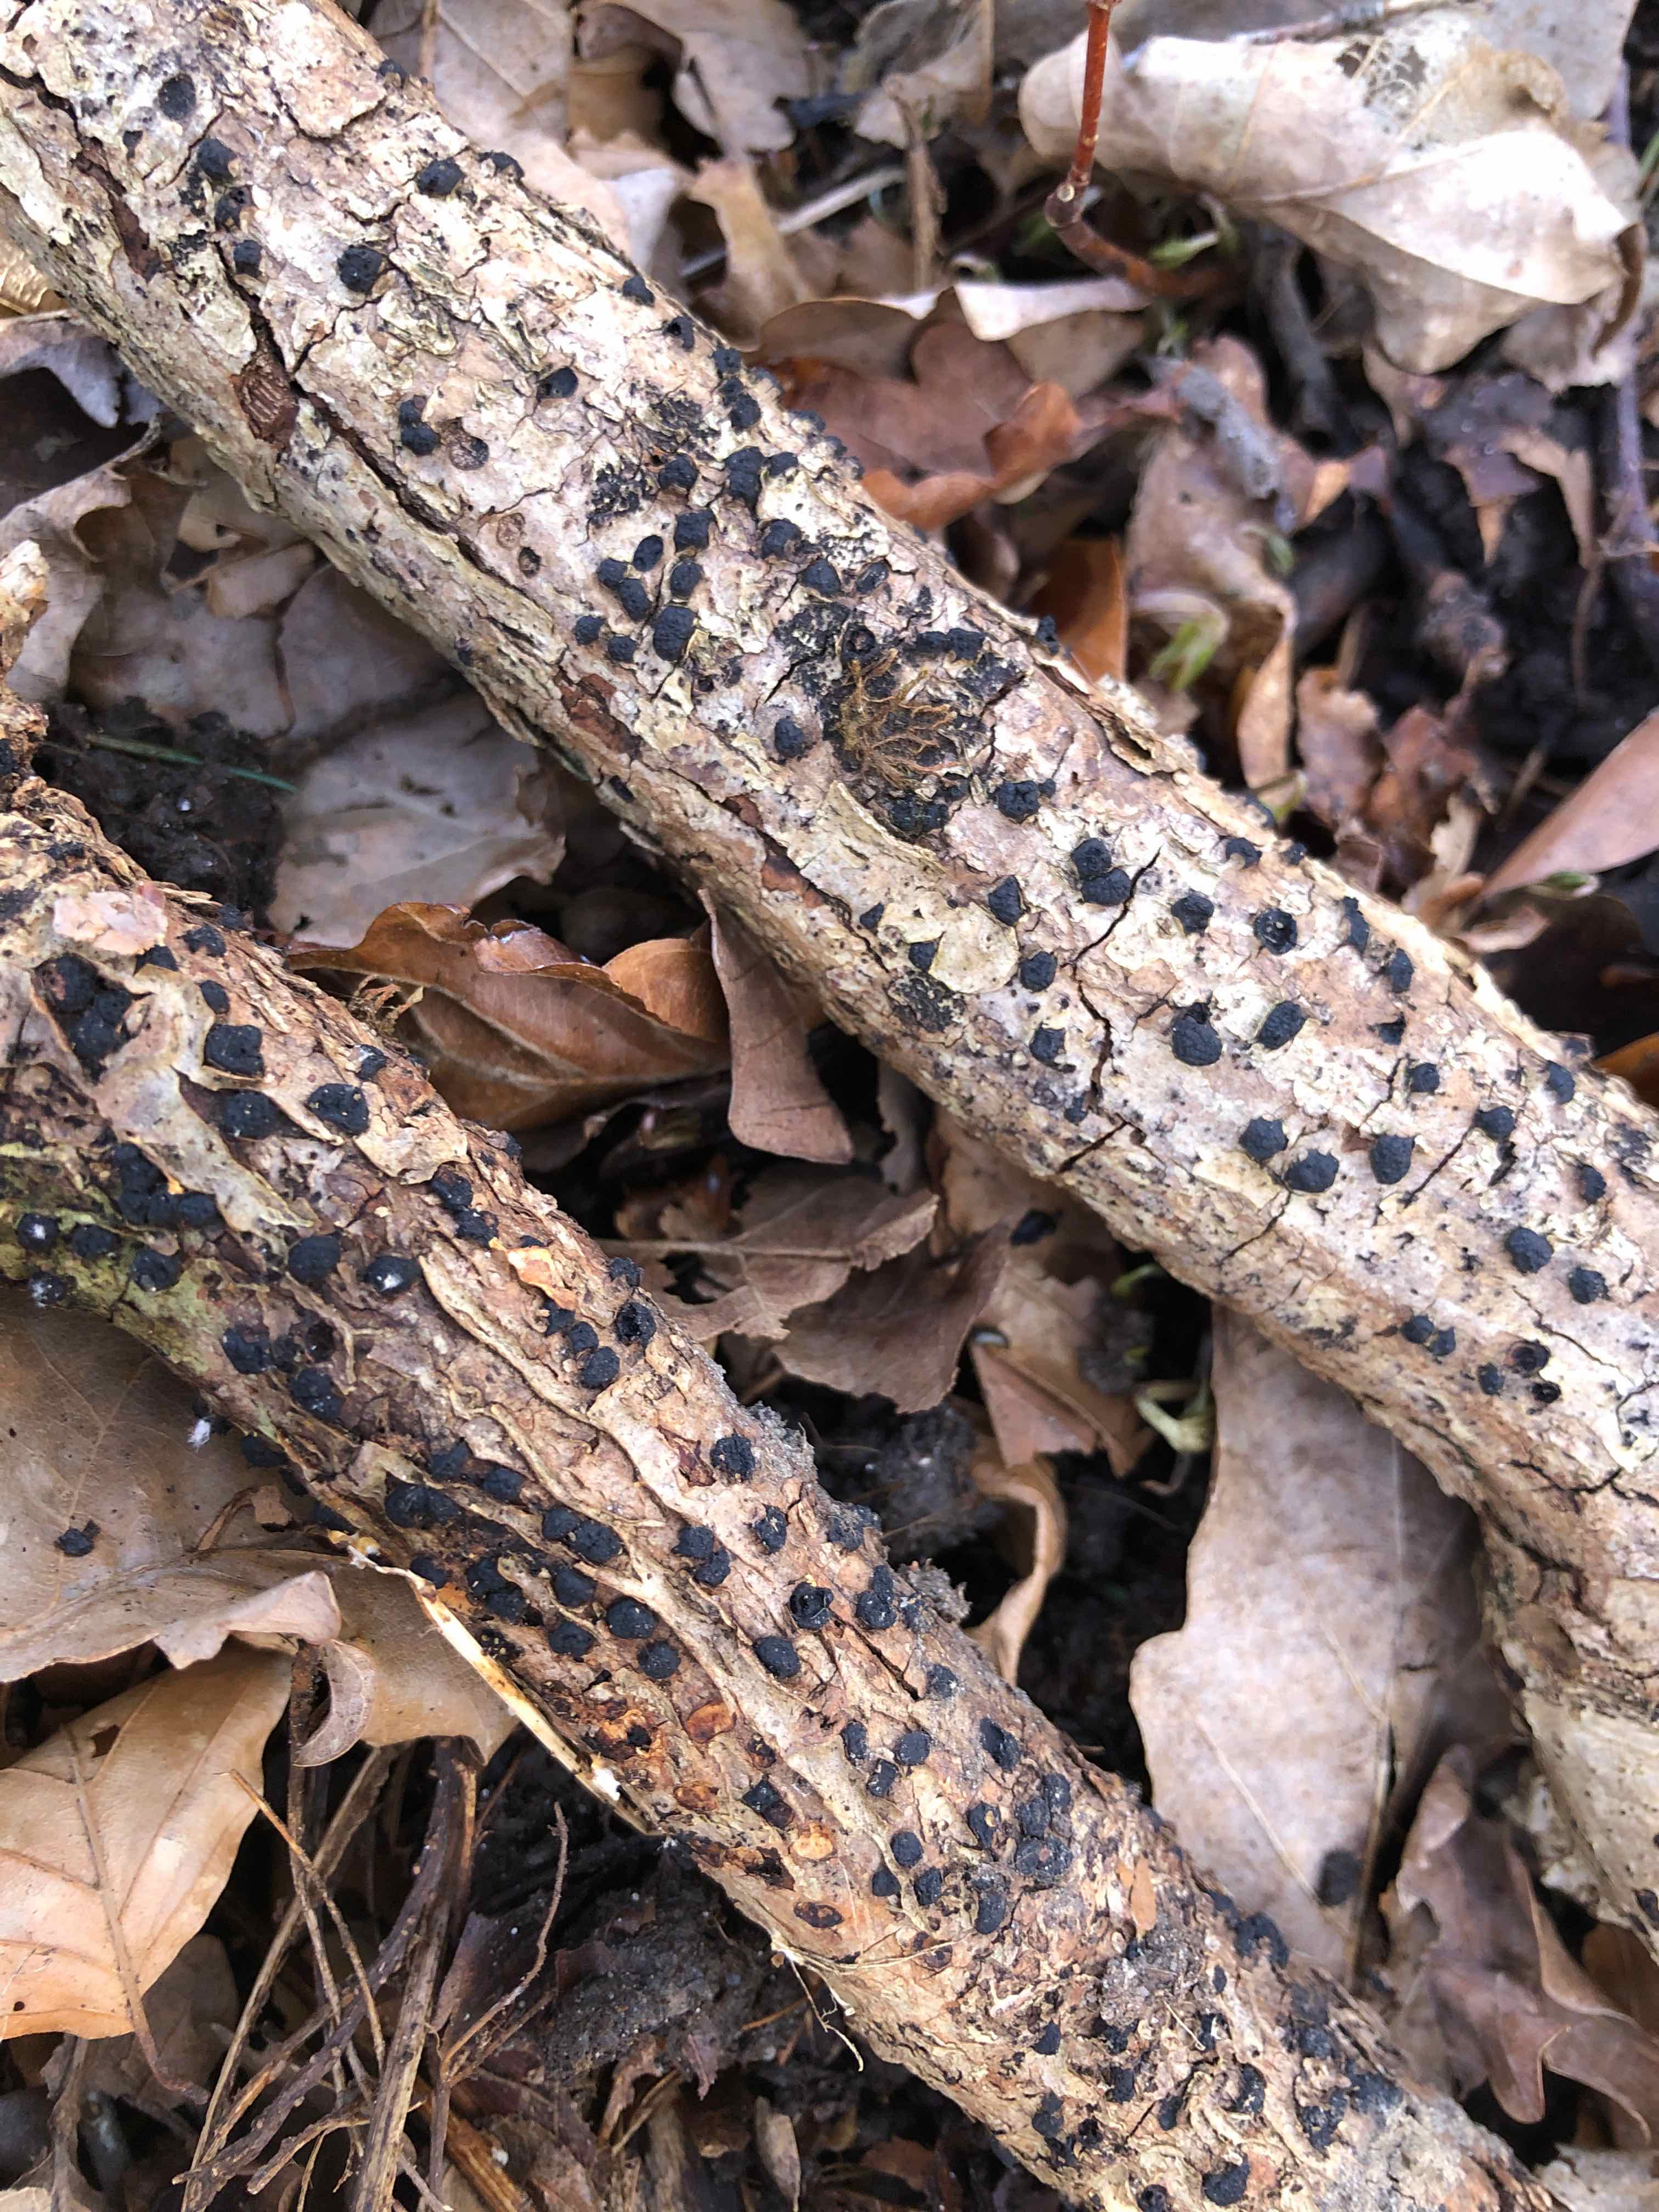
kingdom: Fungi
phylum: Ascomycota
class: Sordariomycetes
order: Xylariales
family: Diatrypaceae
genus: Diatrypella
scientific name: Diatrypella quercina
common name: ege-kulskorpe
